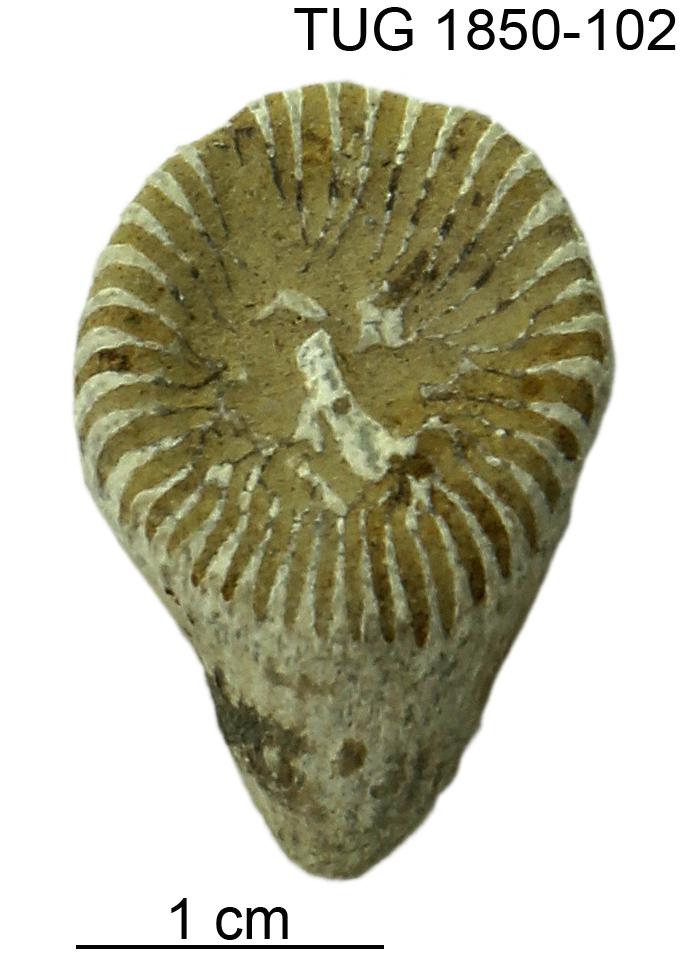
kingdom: Animalia
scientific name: Animalia
